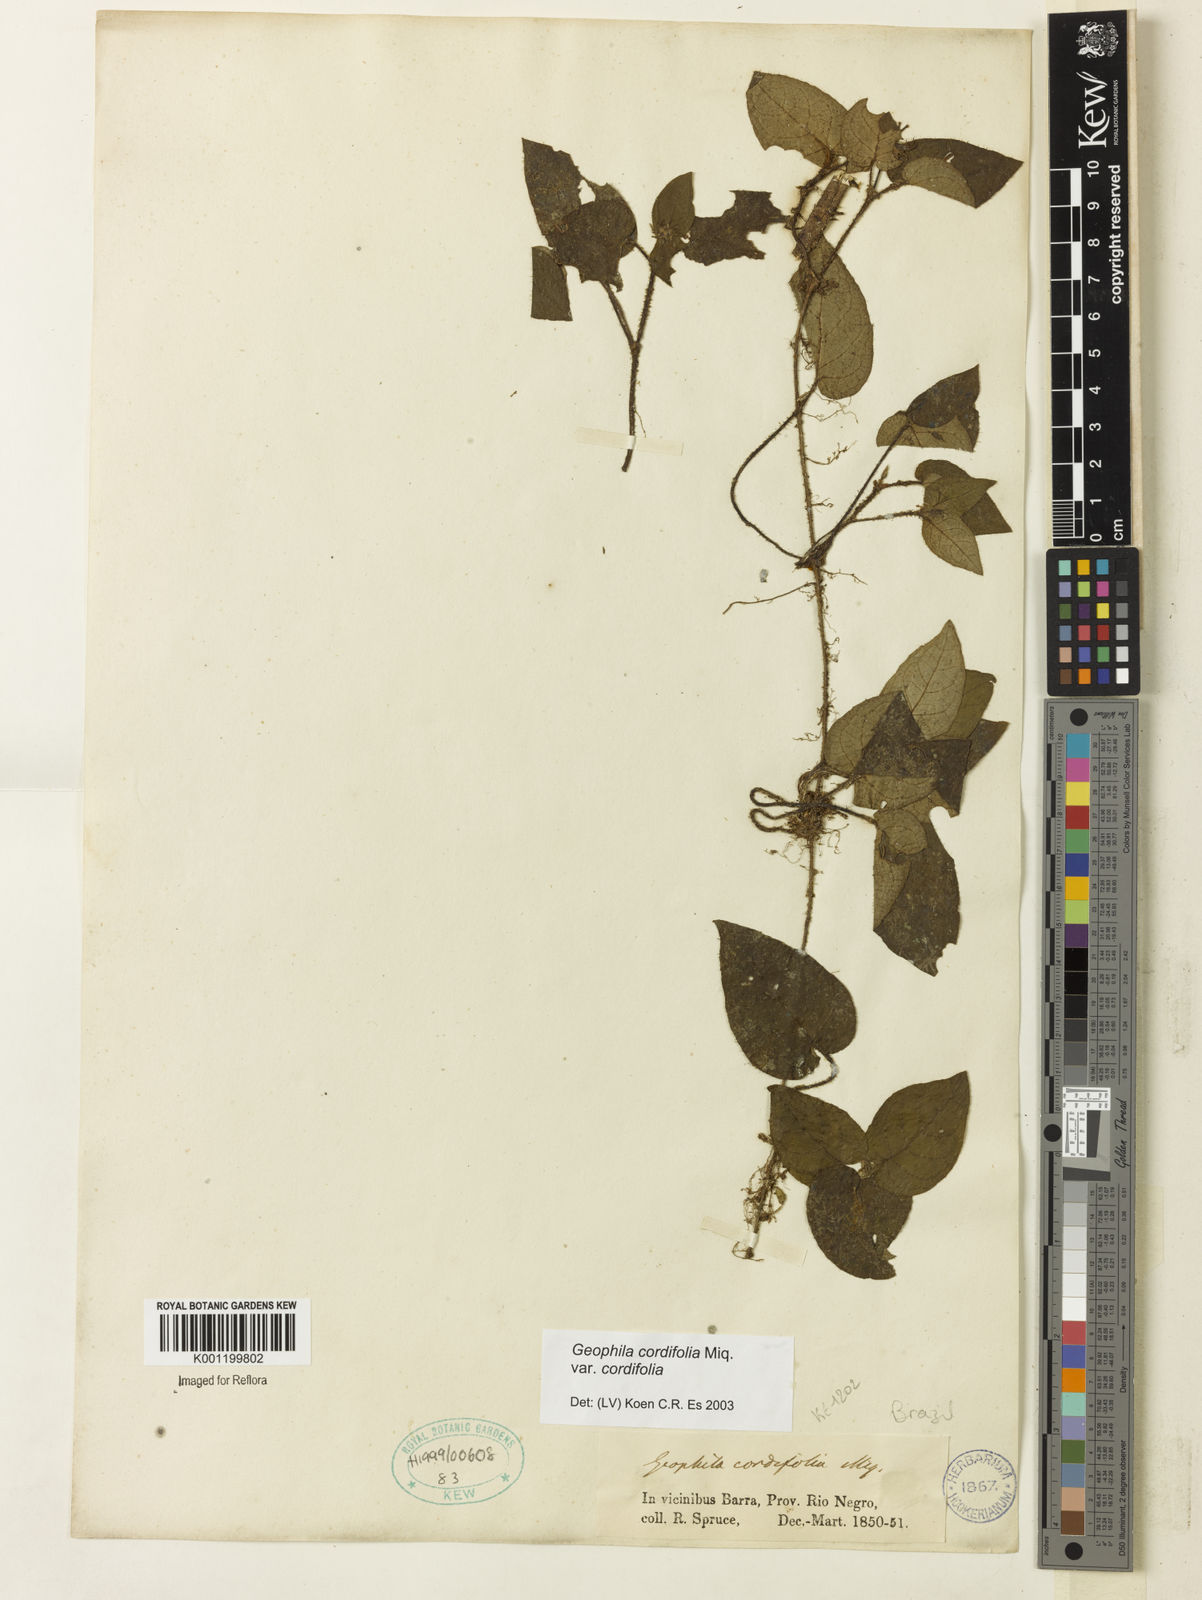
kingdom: Plantae
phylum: Tracheophyta
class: Magnoliopsida
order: Gentianales
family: Rubiaceae
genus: Geophila
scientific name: Geophila cordifolia
